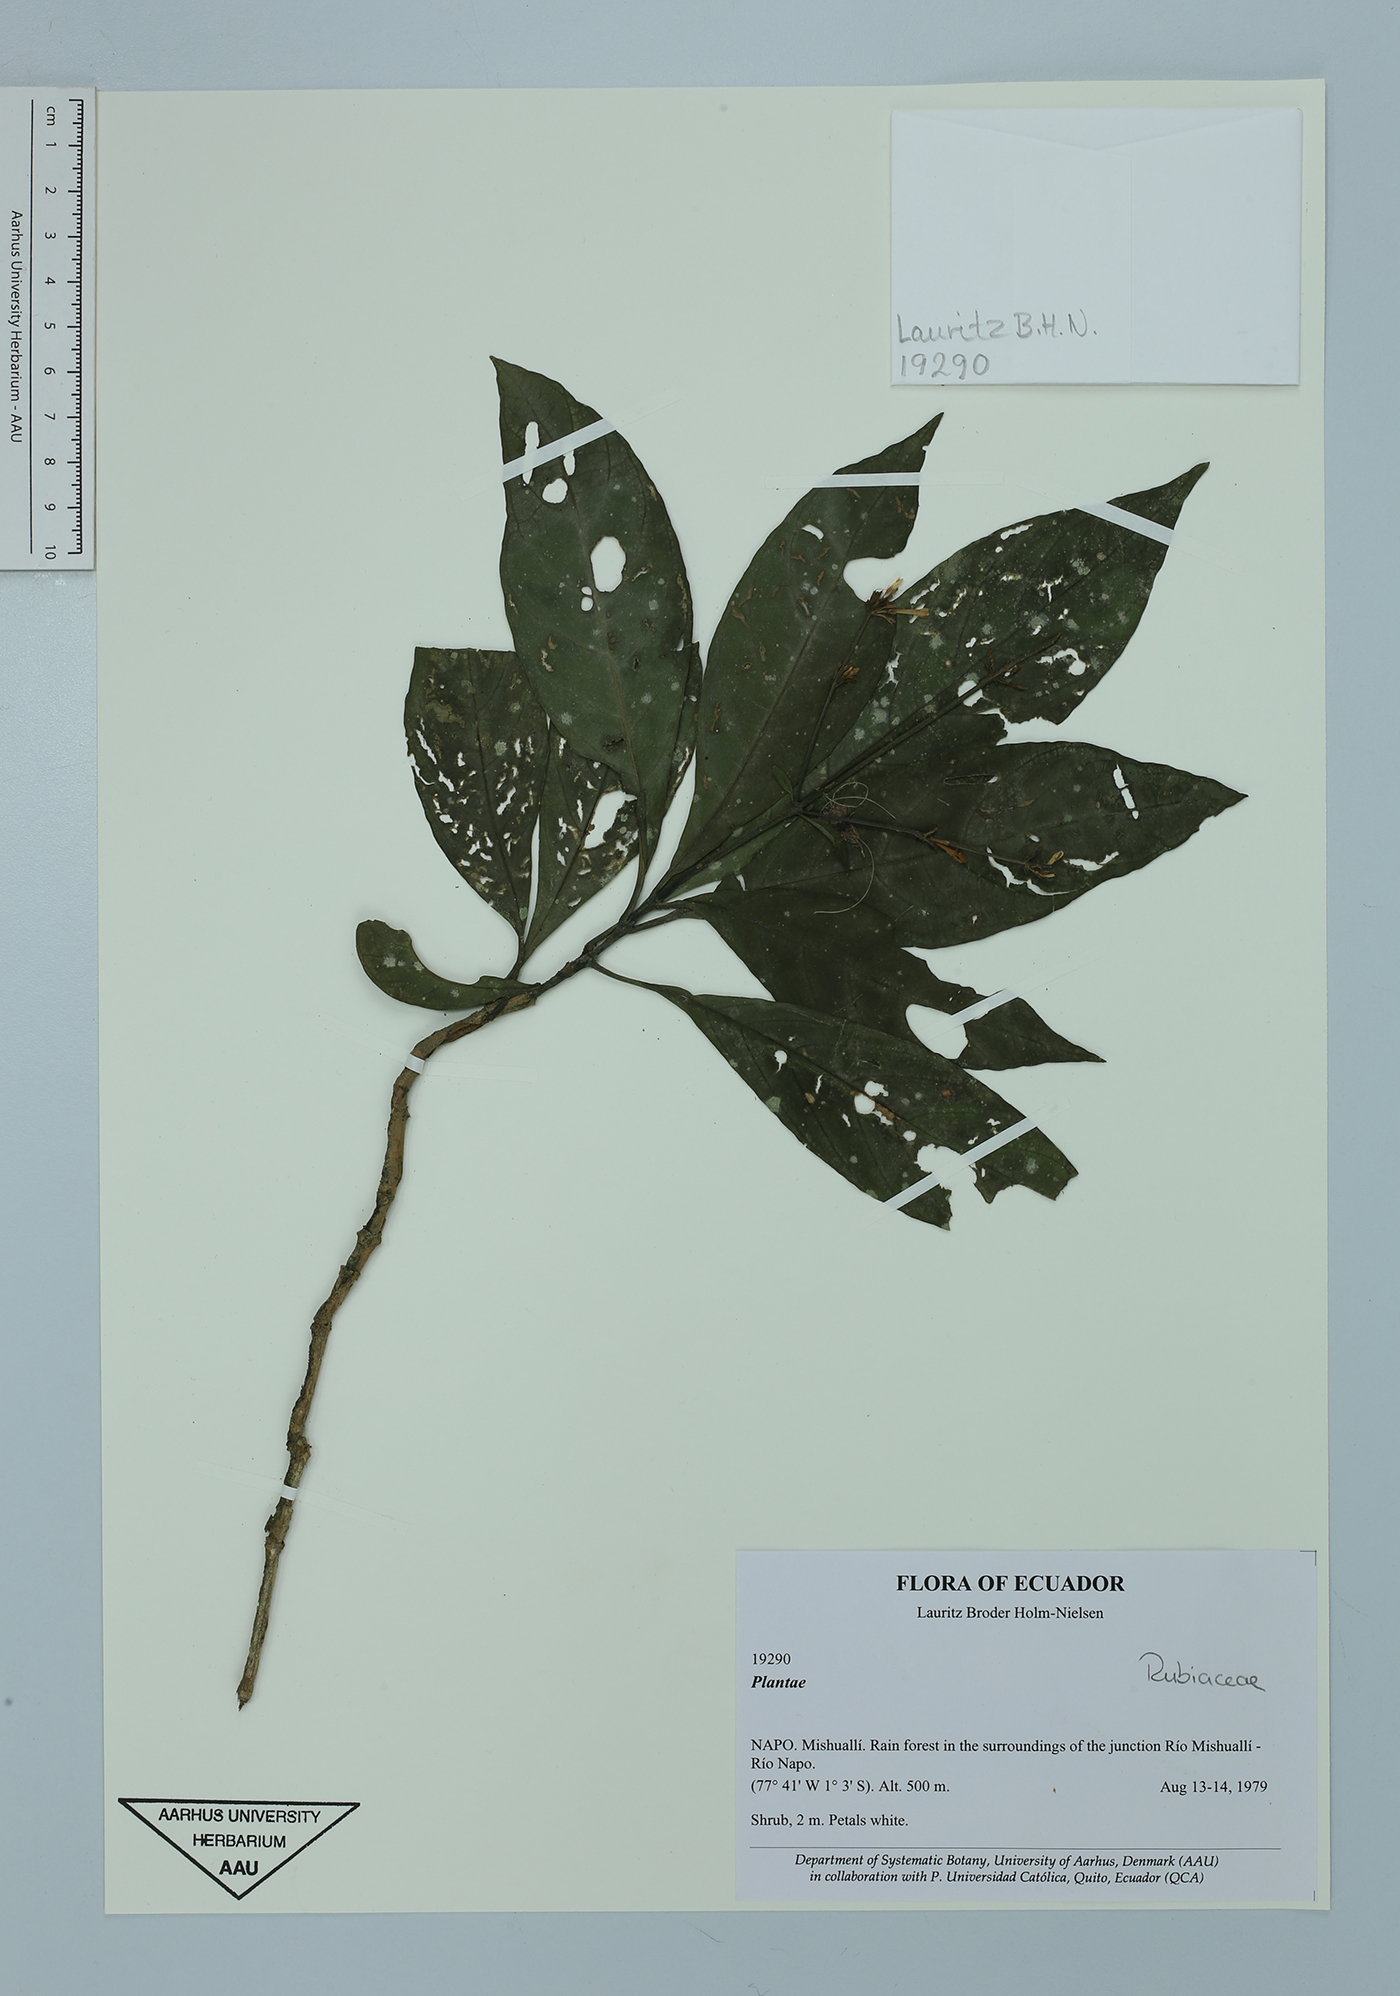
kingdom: Plantae
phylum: Tracheophyta
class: Magnoliopsida
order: Lamiales
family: Acanthaceae
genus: Pseuderanthemum
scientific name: Pseuderanthemum hookerianum
